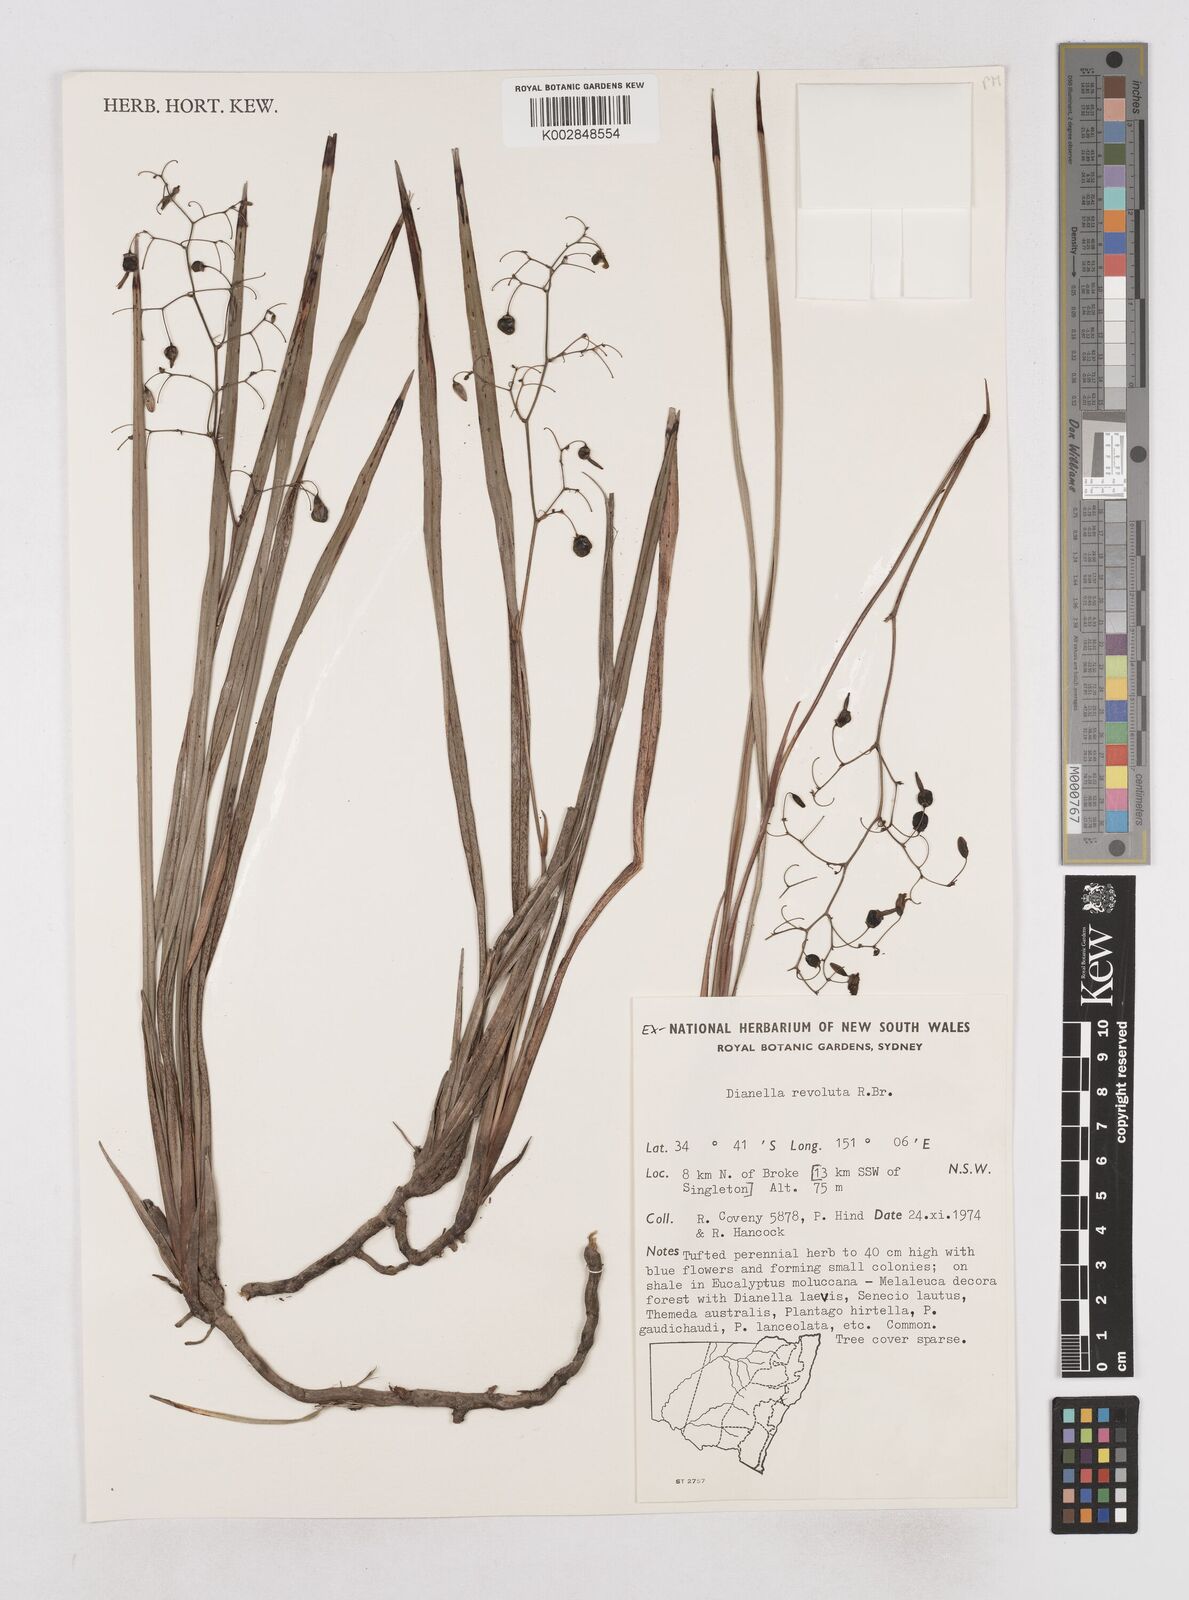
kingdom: Plantae
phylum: Tracheophyta
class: Liliopsida
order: Asparagales
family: Asphodelaceae
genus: Dianella
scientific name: Dianella revoluta
